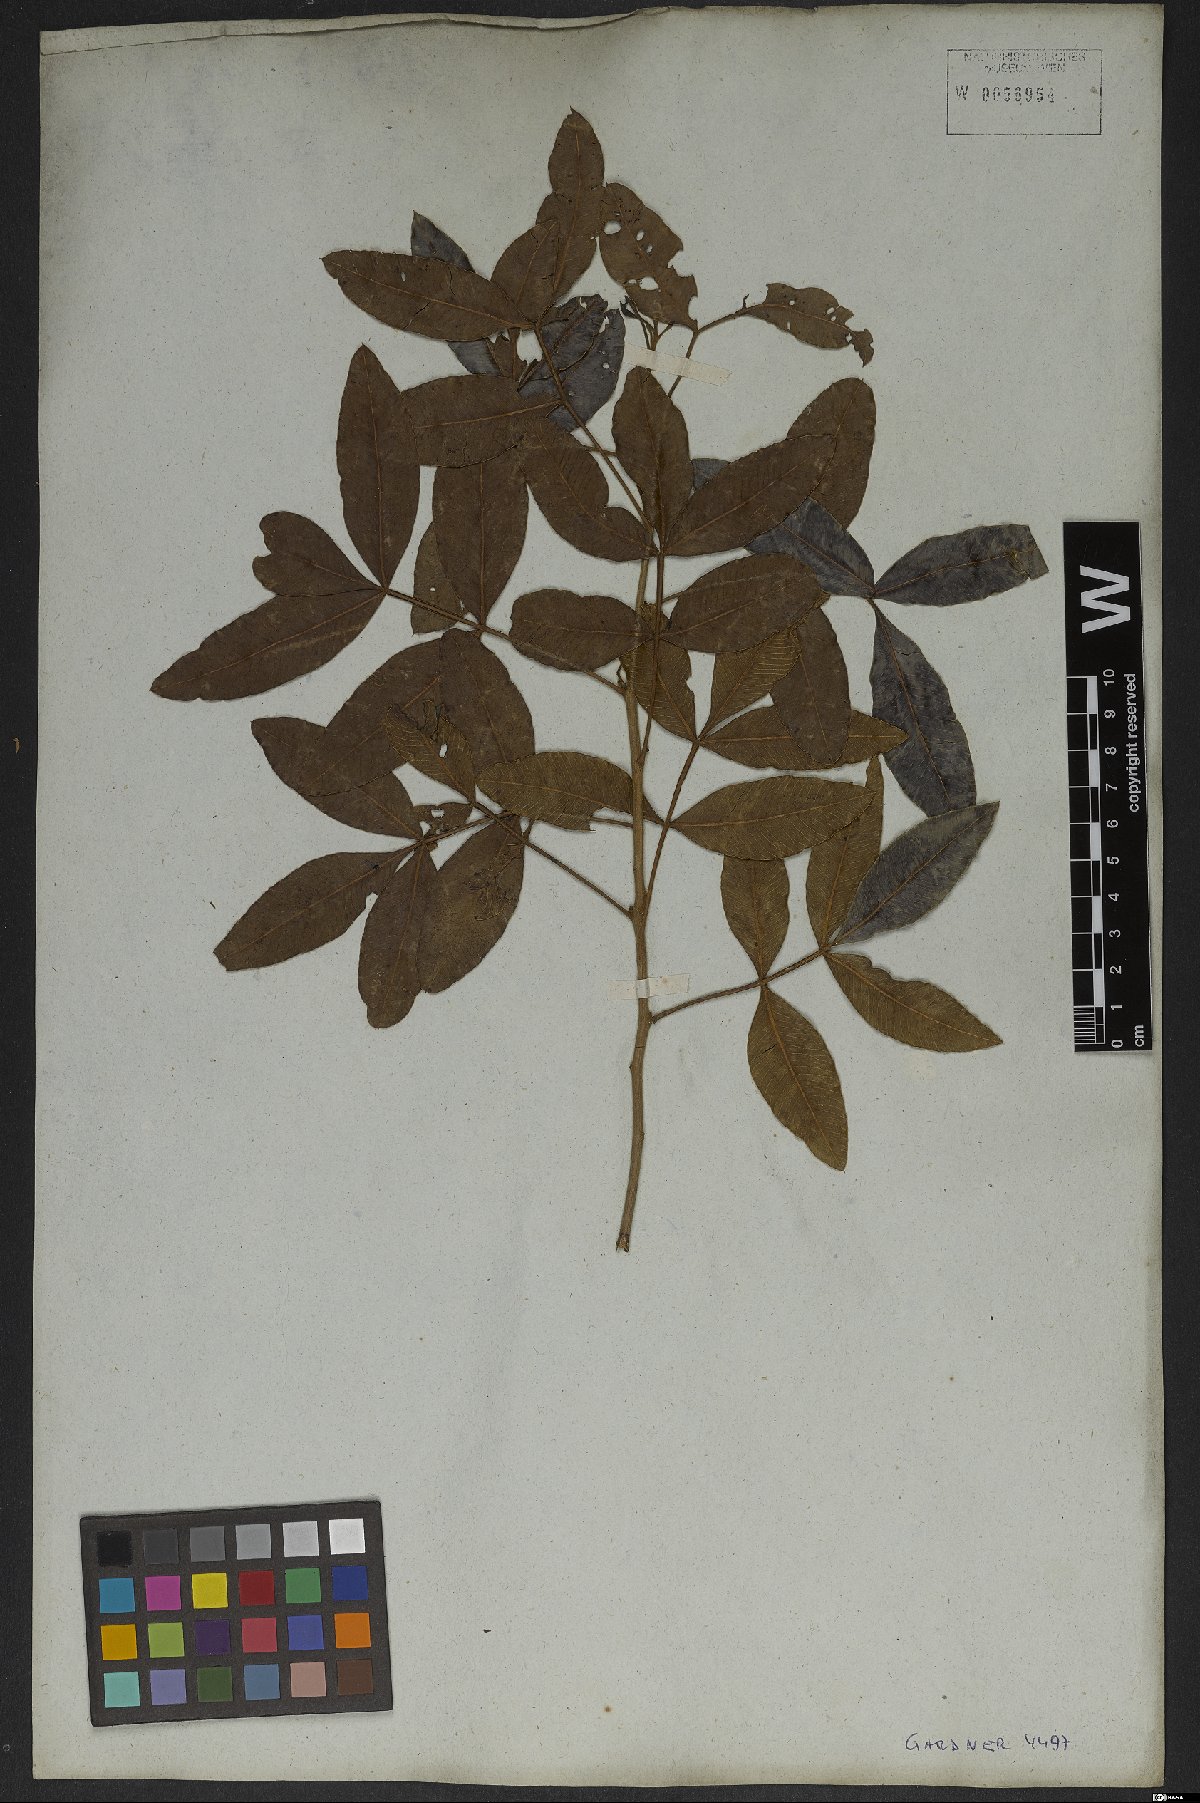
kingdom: Plantae
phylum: Tracheophyta
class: Magnoliopsida
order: Sapindales
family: Anacardiaceae
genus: Lithraea
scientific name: Lithraea brasiliensis
